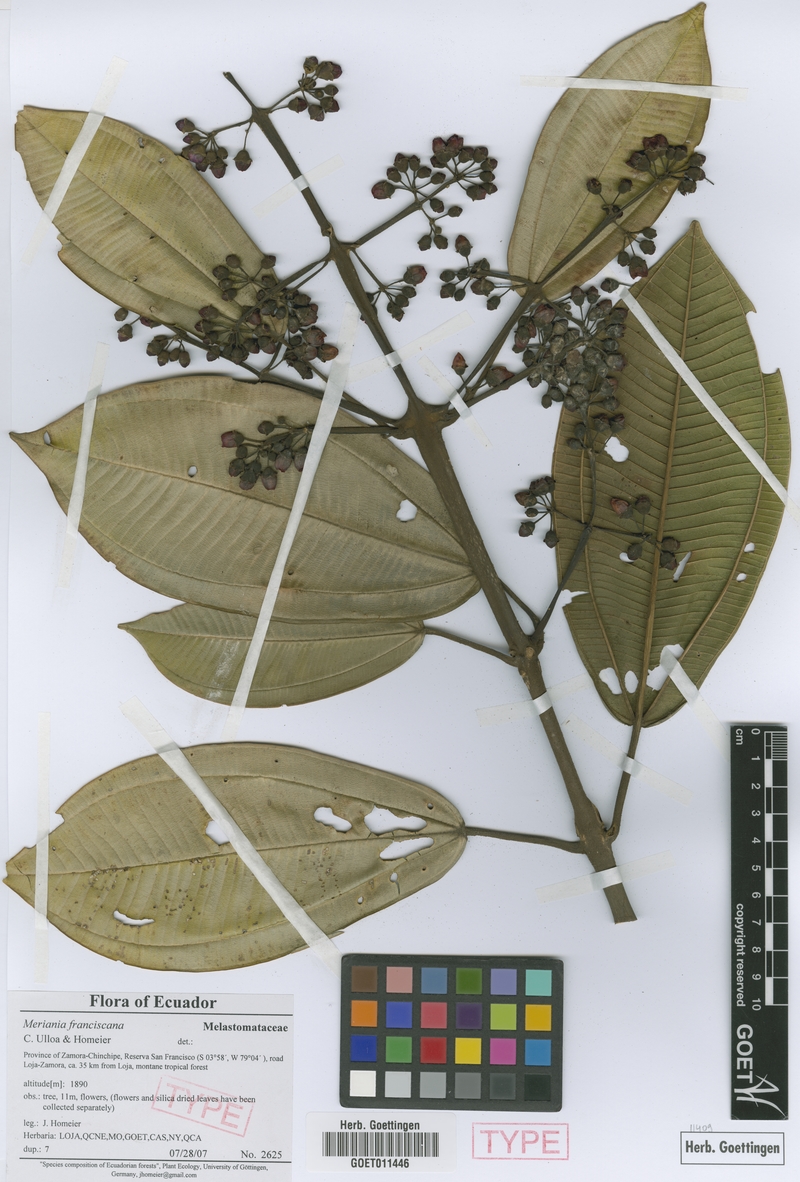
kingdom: Plantae
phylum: Tracheophyta
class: Magnoliopsida
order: Myrtales
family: Melastomataceae
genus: Meriania
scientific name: Meriania macrophylla
